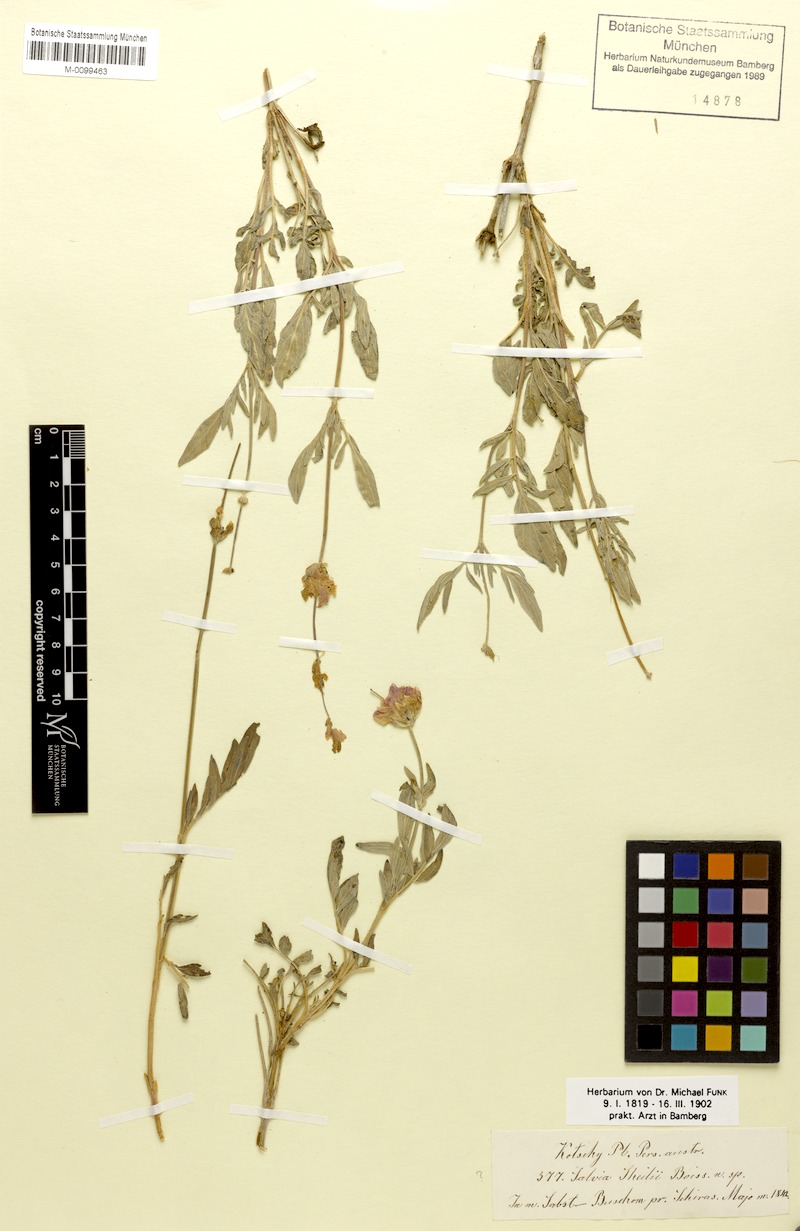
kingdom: Plantae
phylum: Tracheophyta
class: Magnoliopsida
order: Lamiales
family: Lamiaceae
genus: Salvia
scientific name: Salvia hydrangea
